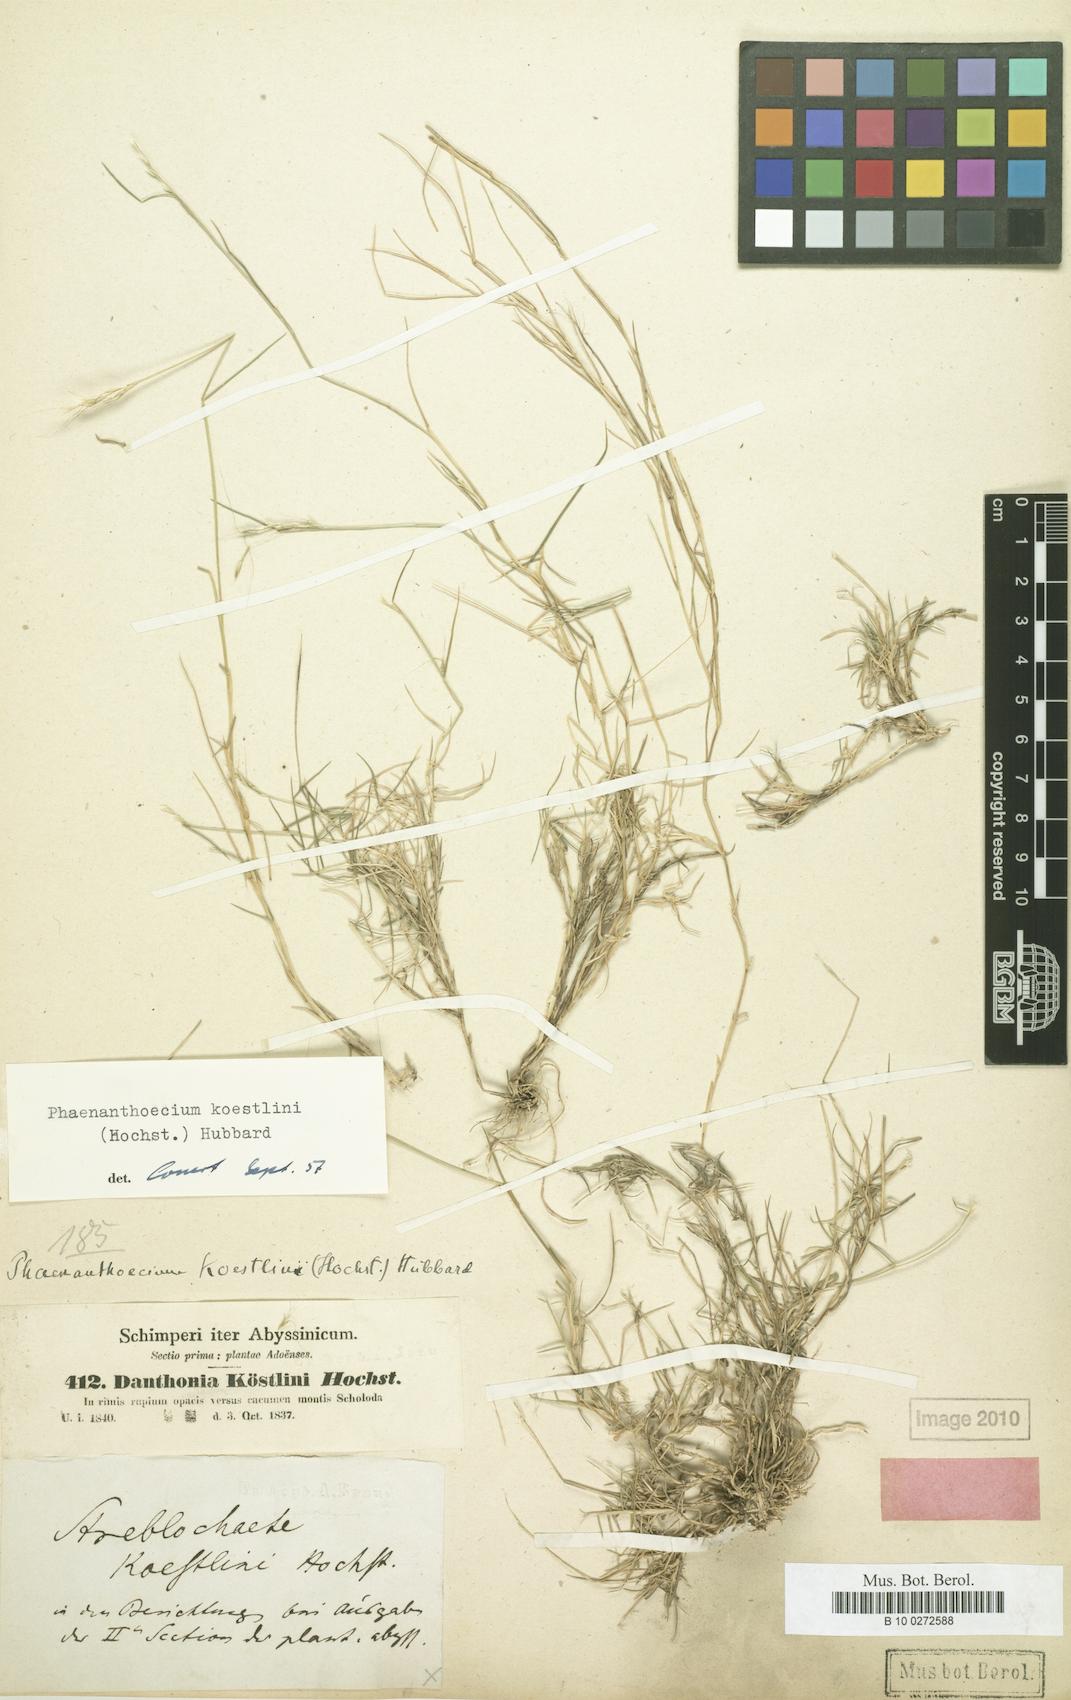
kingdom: Plantae
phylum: Tracheophyta
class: Liliopsida
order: Poales
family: Poaceae
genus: Phaenanthoecium
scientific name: Phaenanthoecium koestlinii
